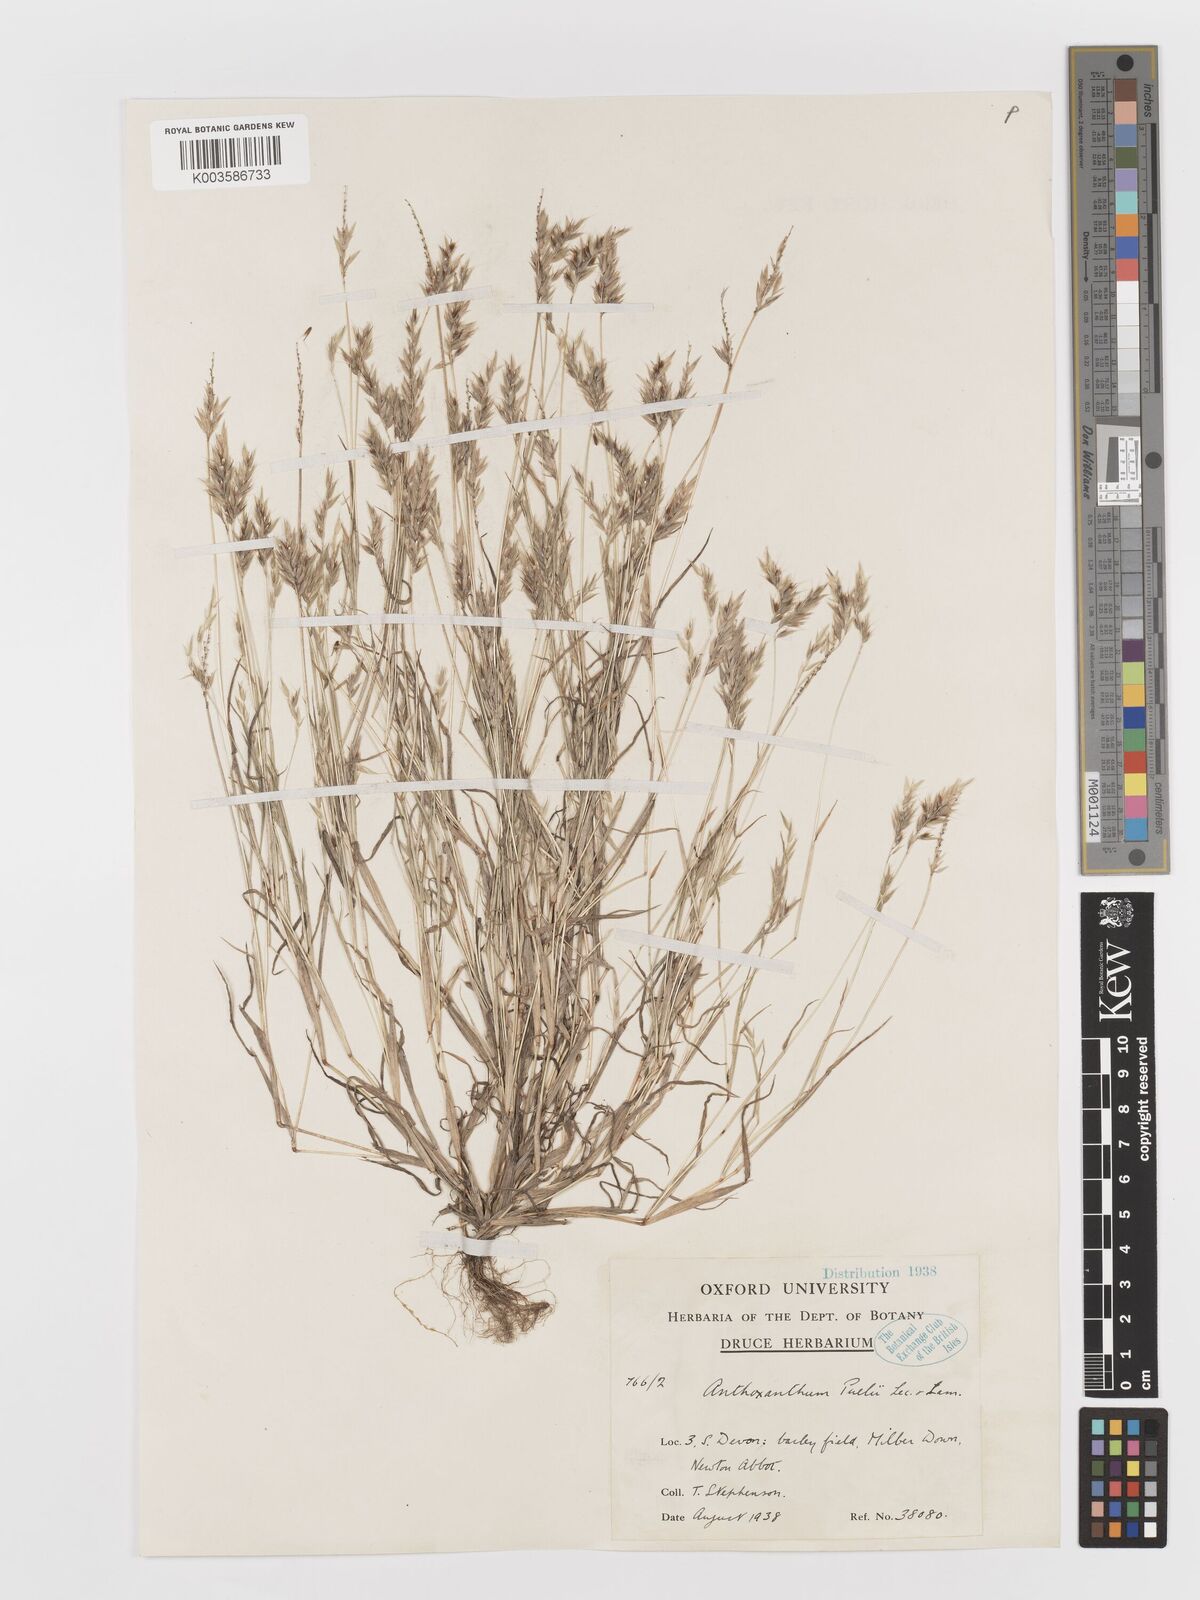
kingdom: Plantae
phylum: Tracheophyta
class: Liliopsida
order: Poales
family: Poaceae
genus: Anthoxanthum
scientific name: Anthoxanthum aristatum
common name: Annual vernal-grass
